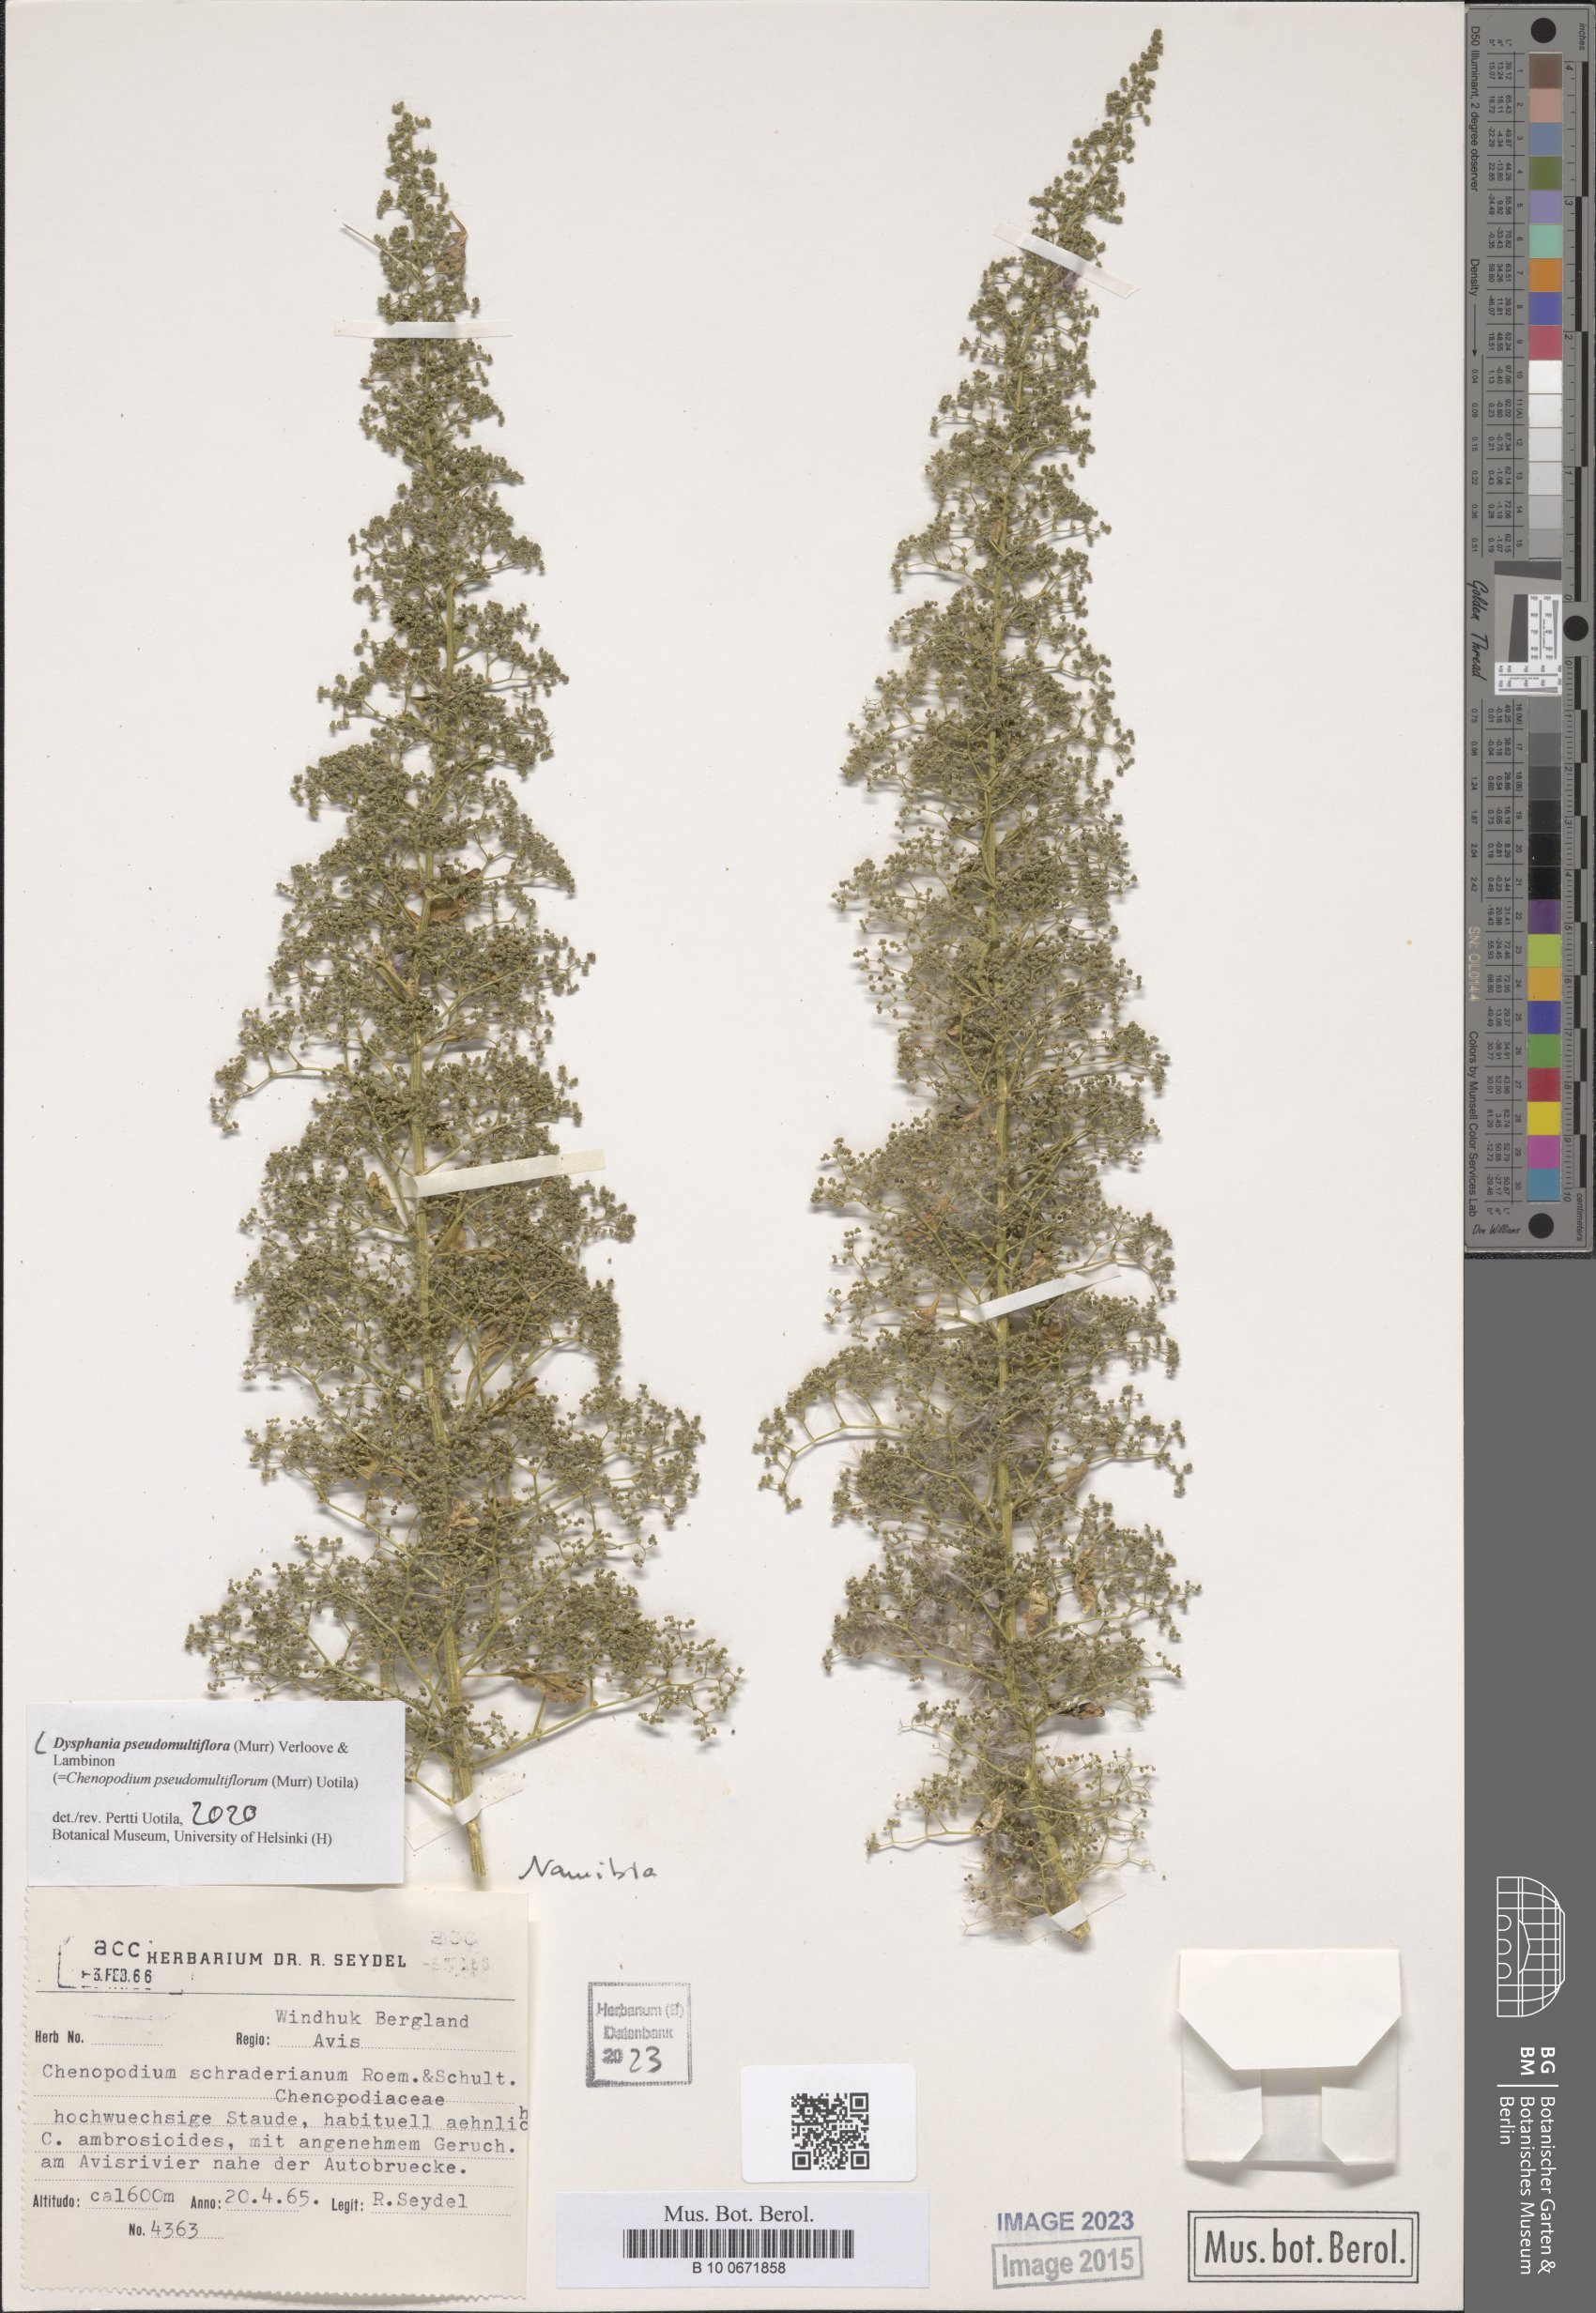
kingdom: Plantae
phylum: Tracheophyta
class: Magnoliopsida
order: Caryophyllales
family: Amaranthaceae
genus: Dysphania
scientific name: Dysphania pseudomultiflora
